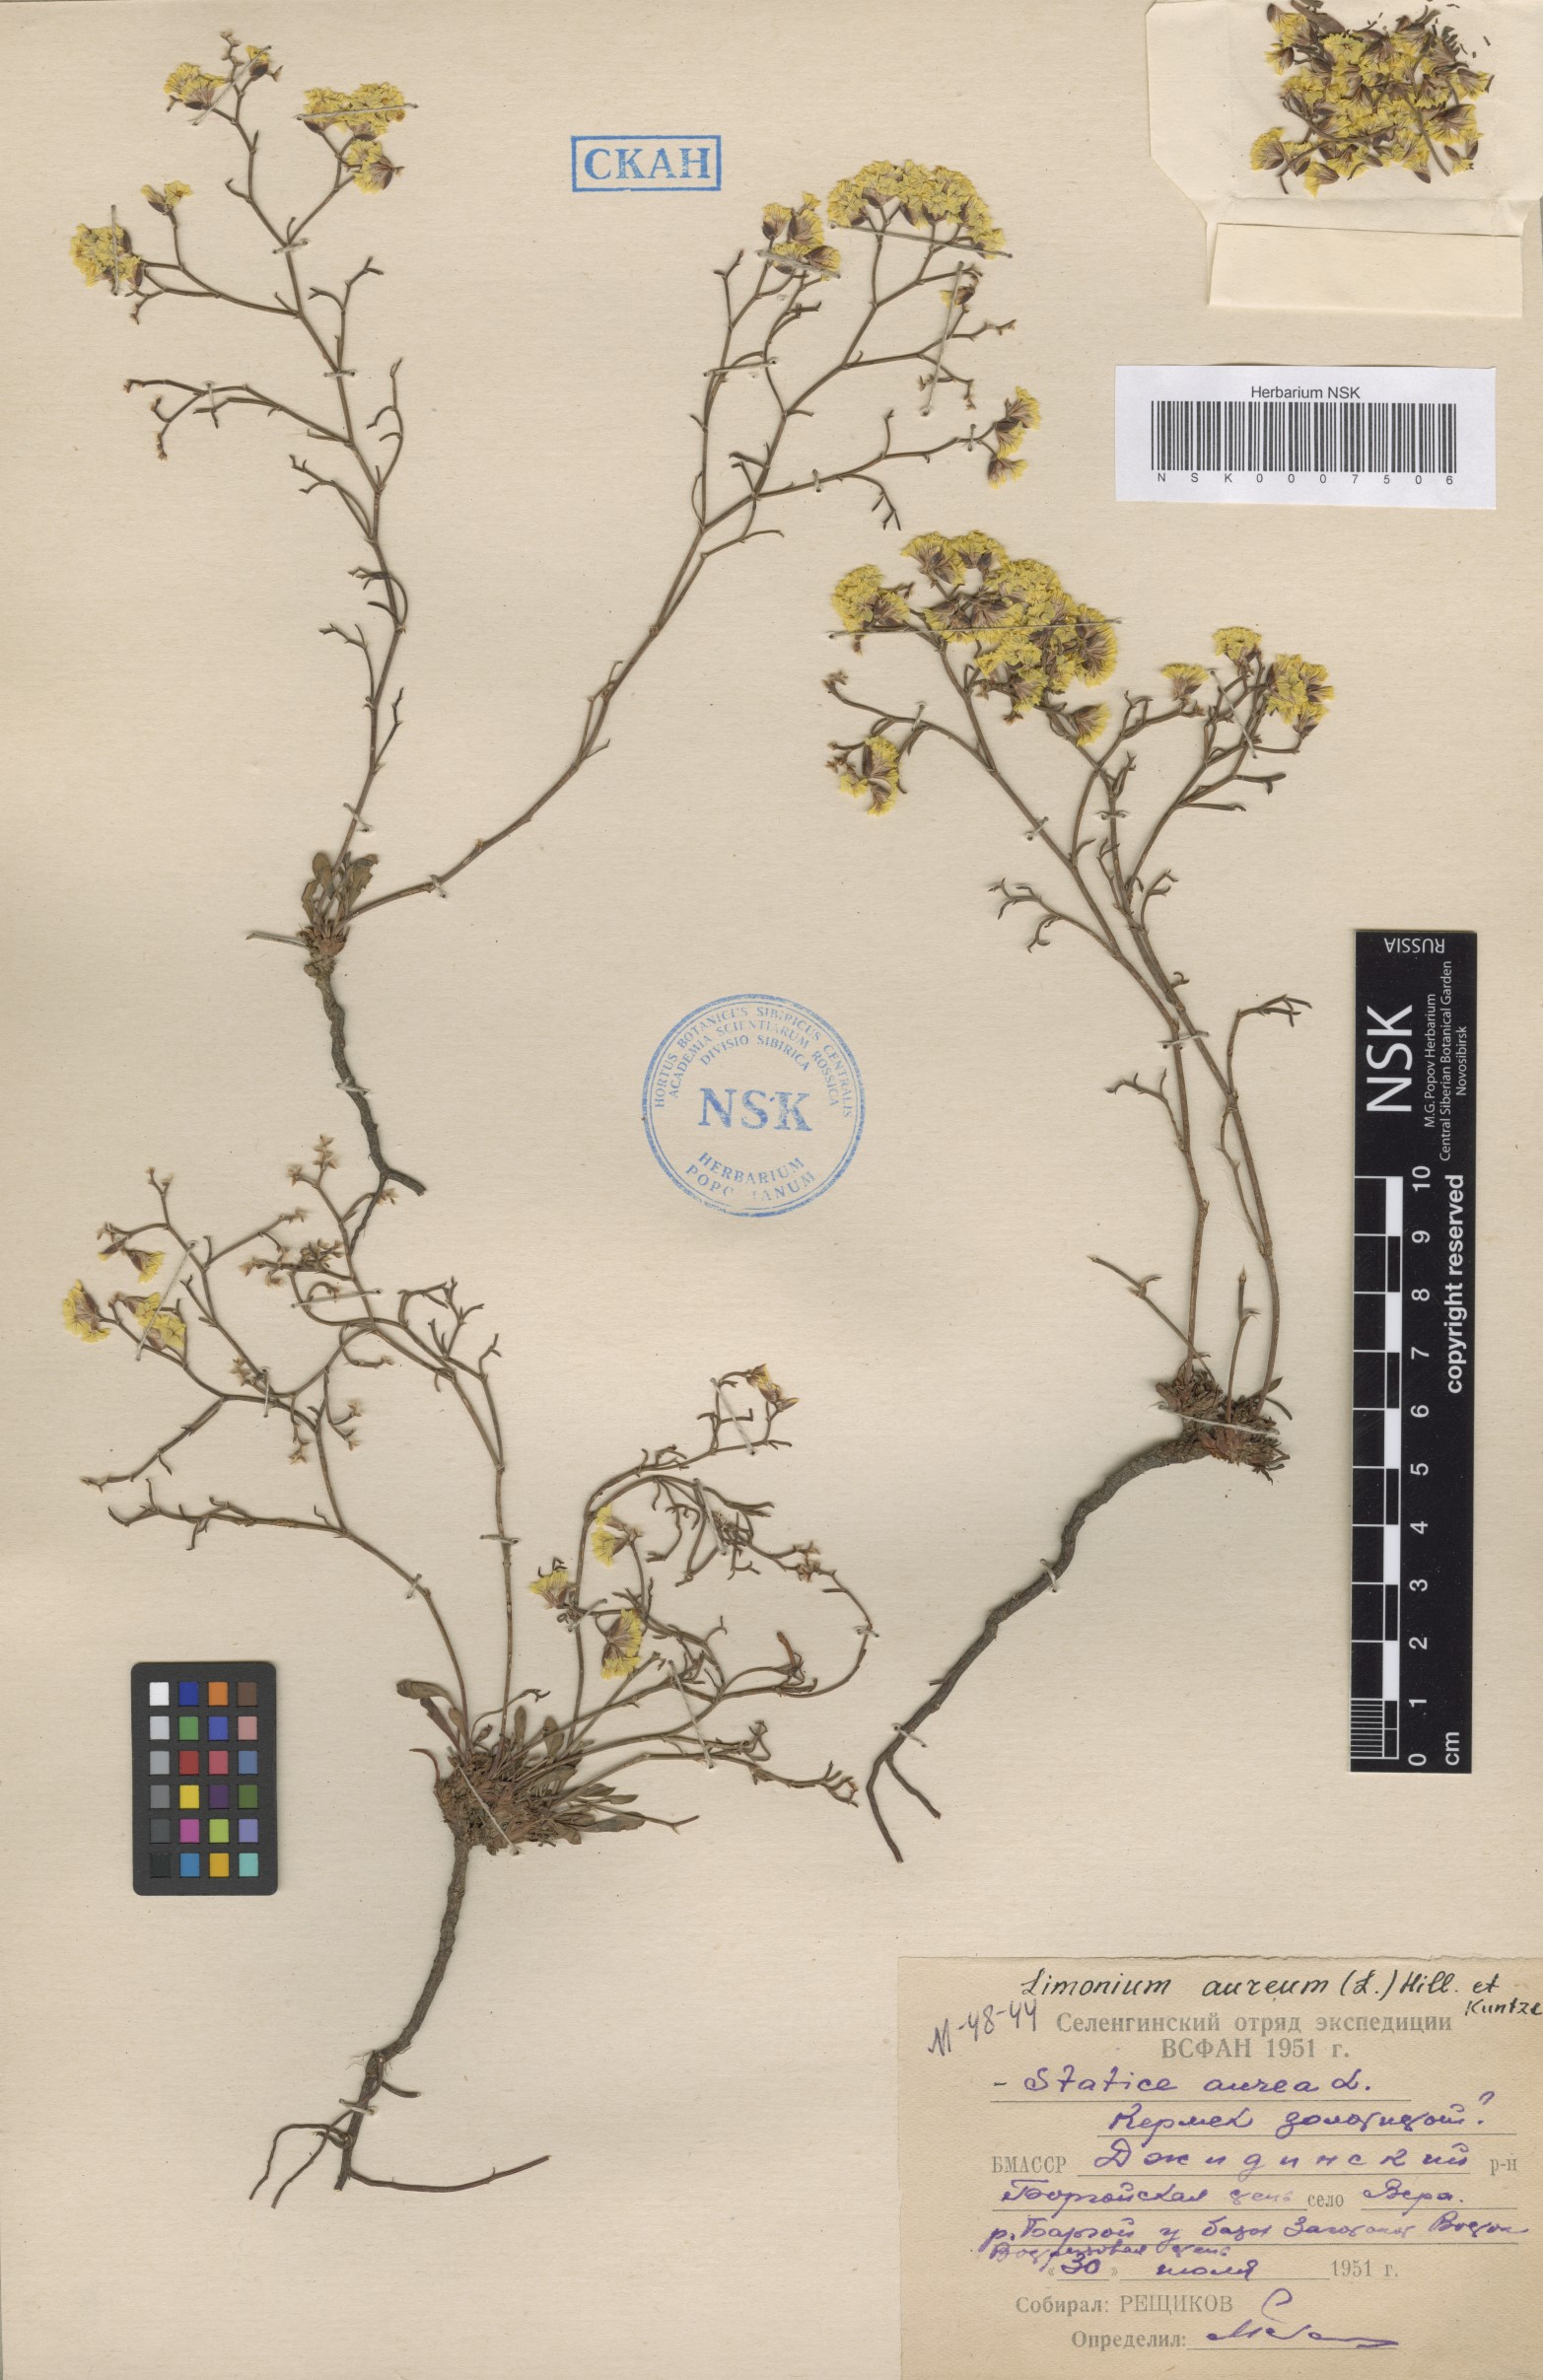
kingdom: Plantae
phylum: Tracheophyta
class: Magnoliopsida
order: Caryophyllales
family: Plumbaginaceae
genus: Limonium
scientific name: Limonium aureum
